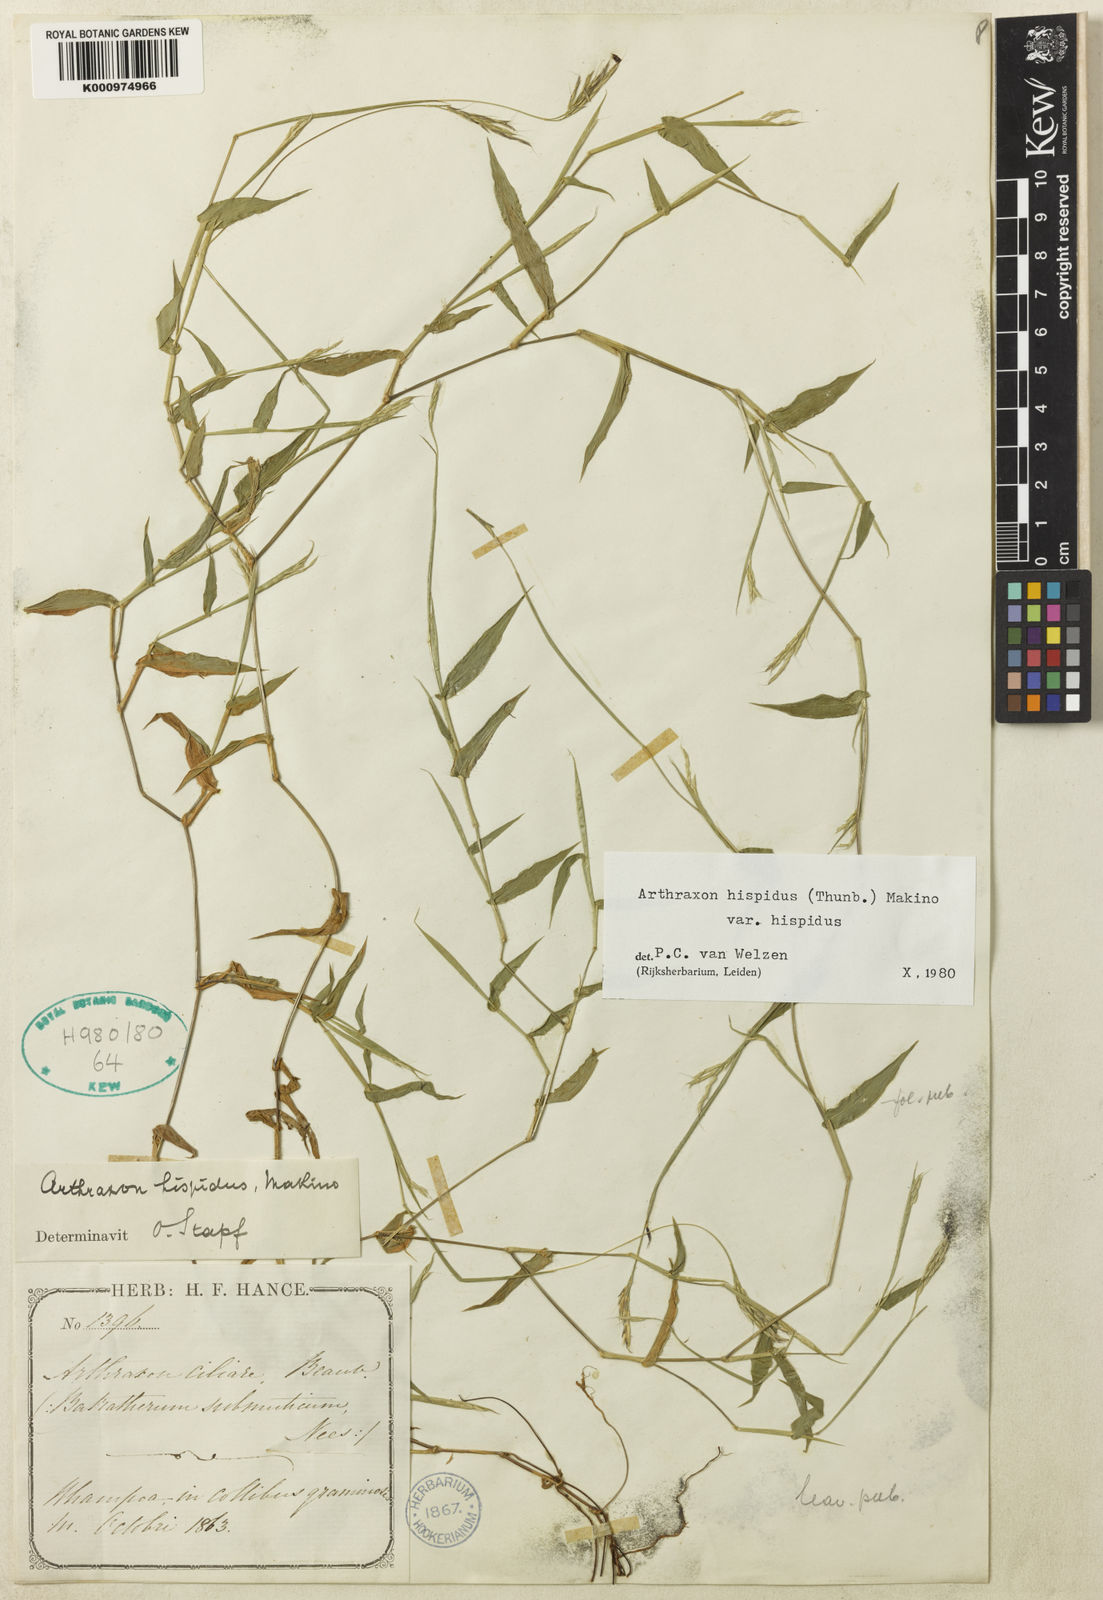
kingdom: Plantae
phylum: Tracheophyta
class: Liliopsida
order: Poales
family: Poaceae
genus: Arthraxon
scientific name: Arthraxon hispidus
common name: Small carpgrass
